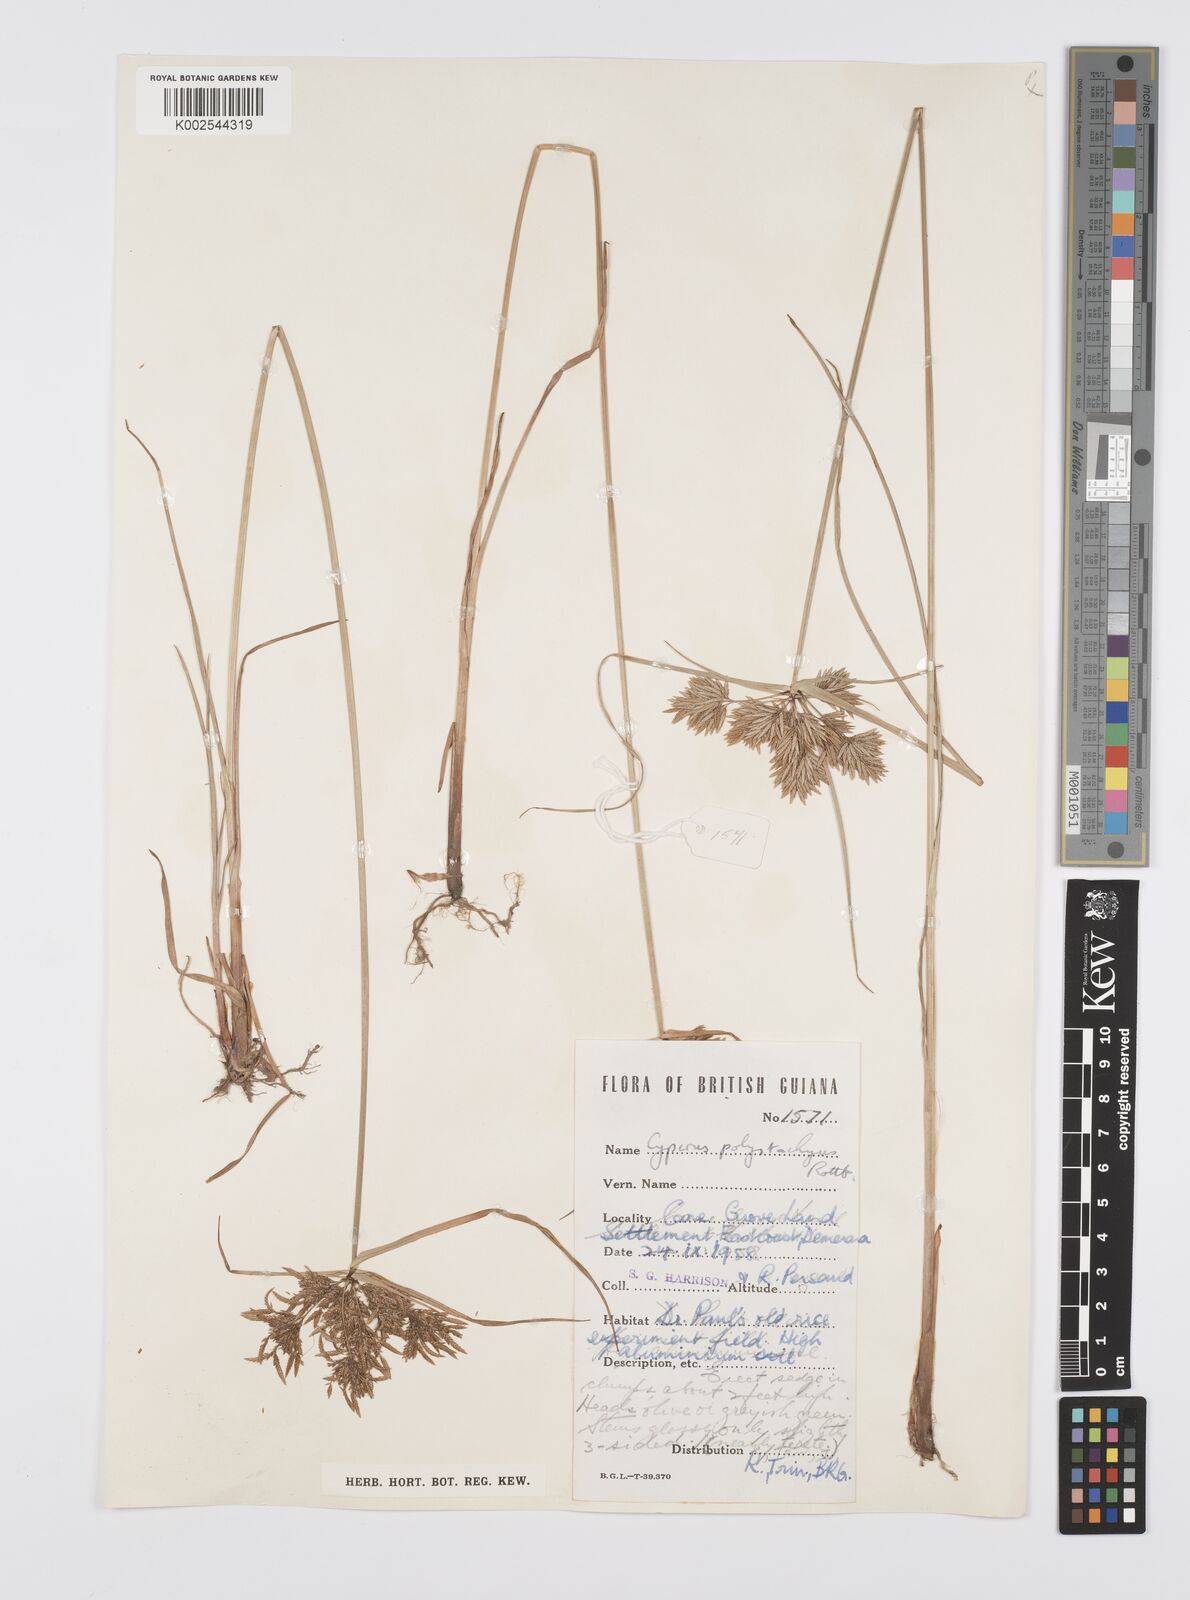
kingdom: Plantae
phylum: Tracheophyta
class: Liliopsida
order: Poales
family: Cyperaceae
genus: Cyperus
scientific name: Cyperus polystachyos
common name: Bunchy flat sedge
